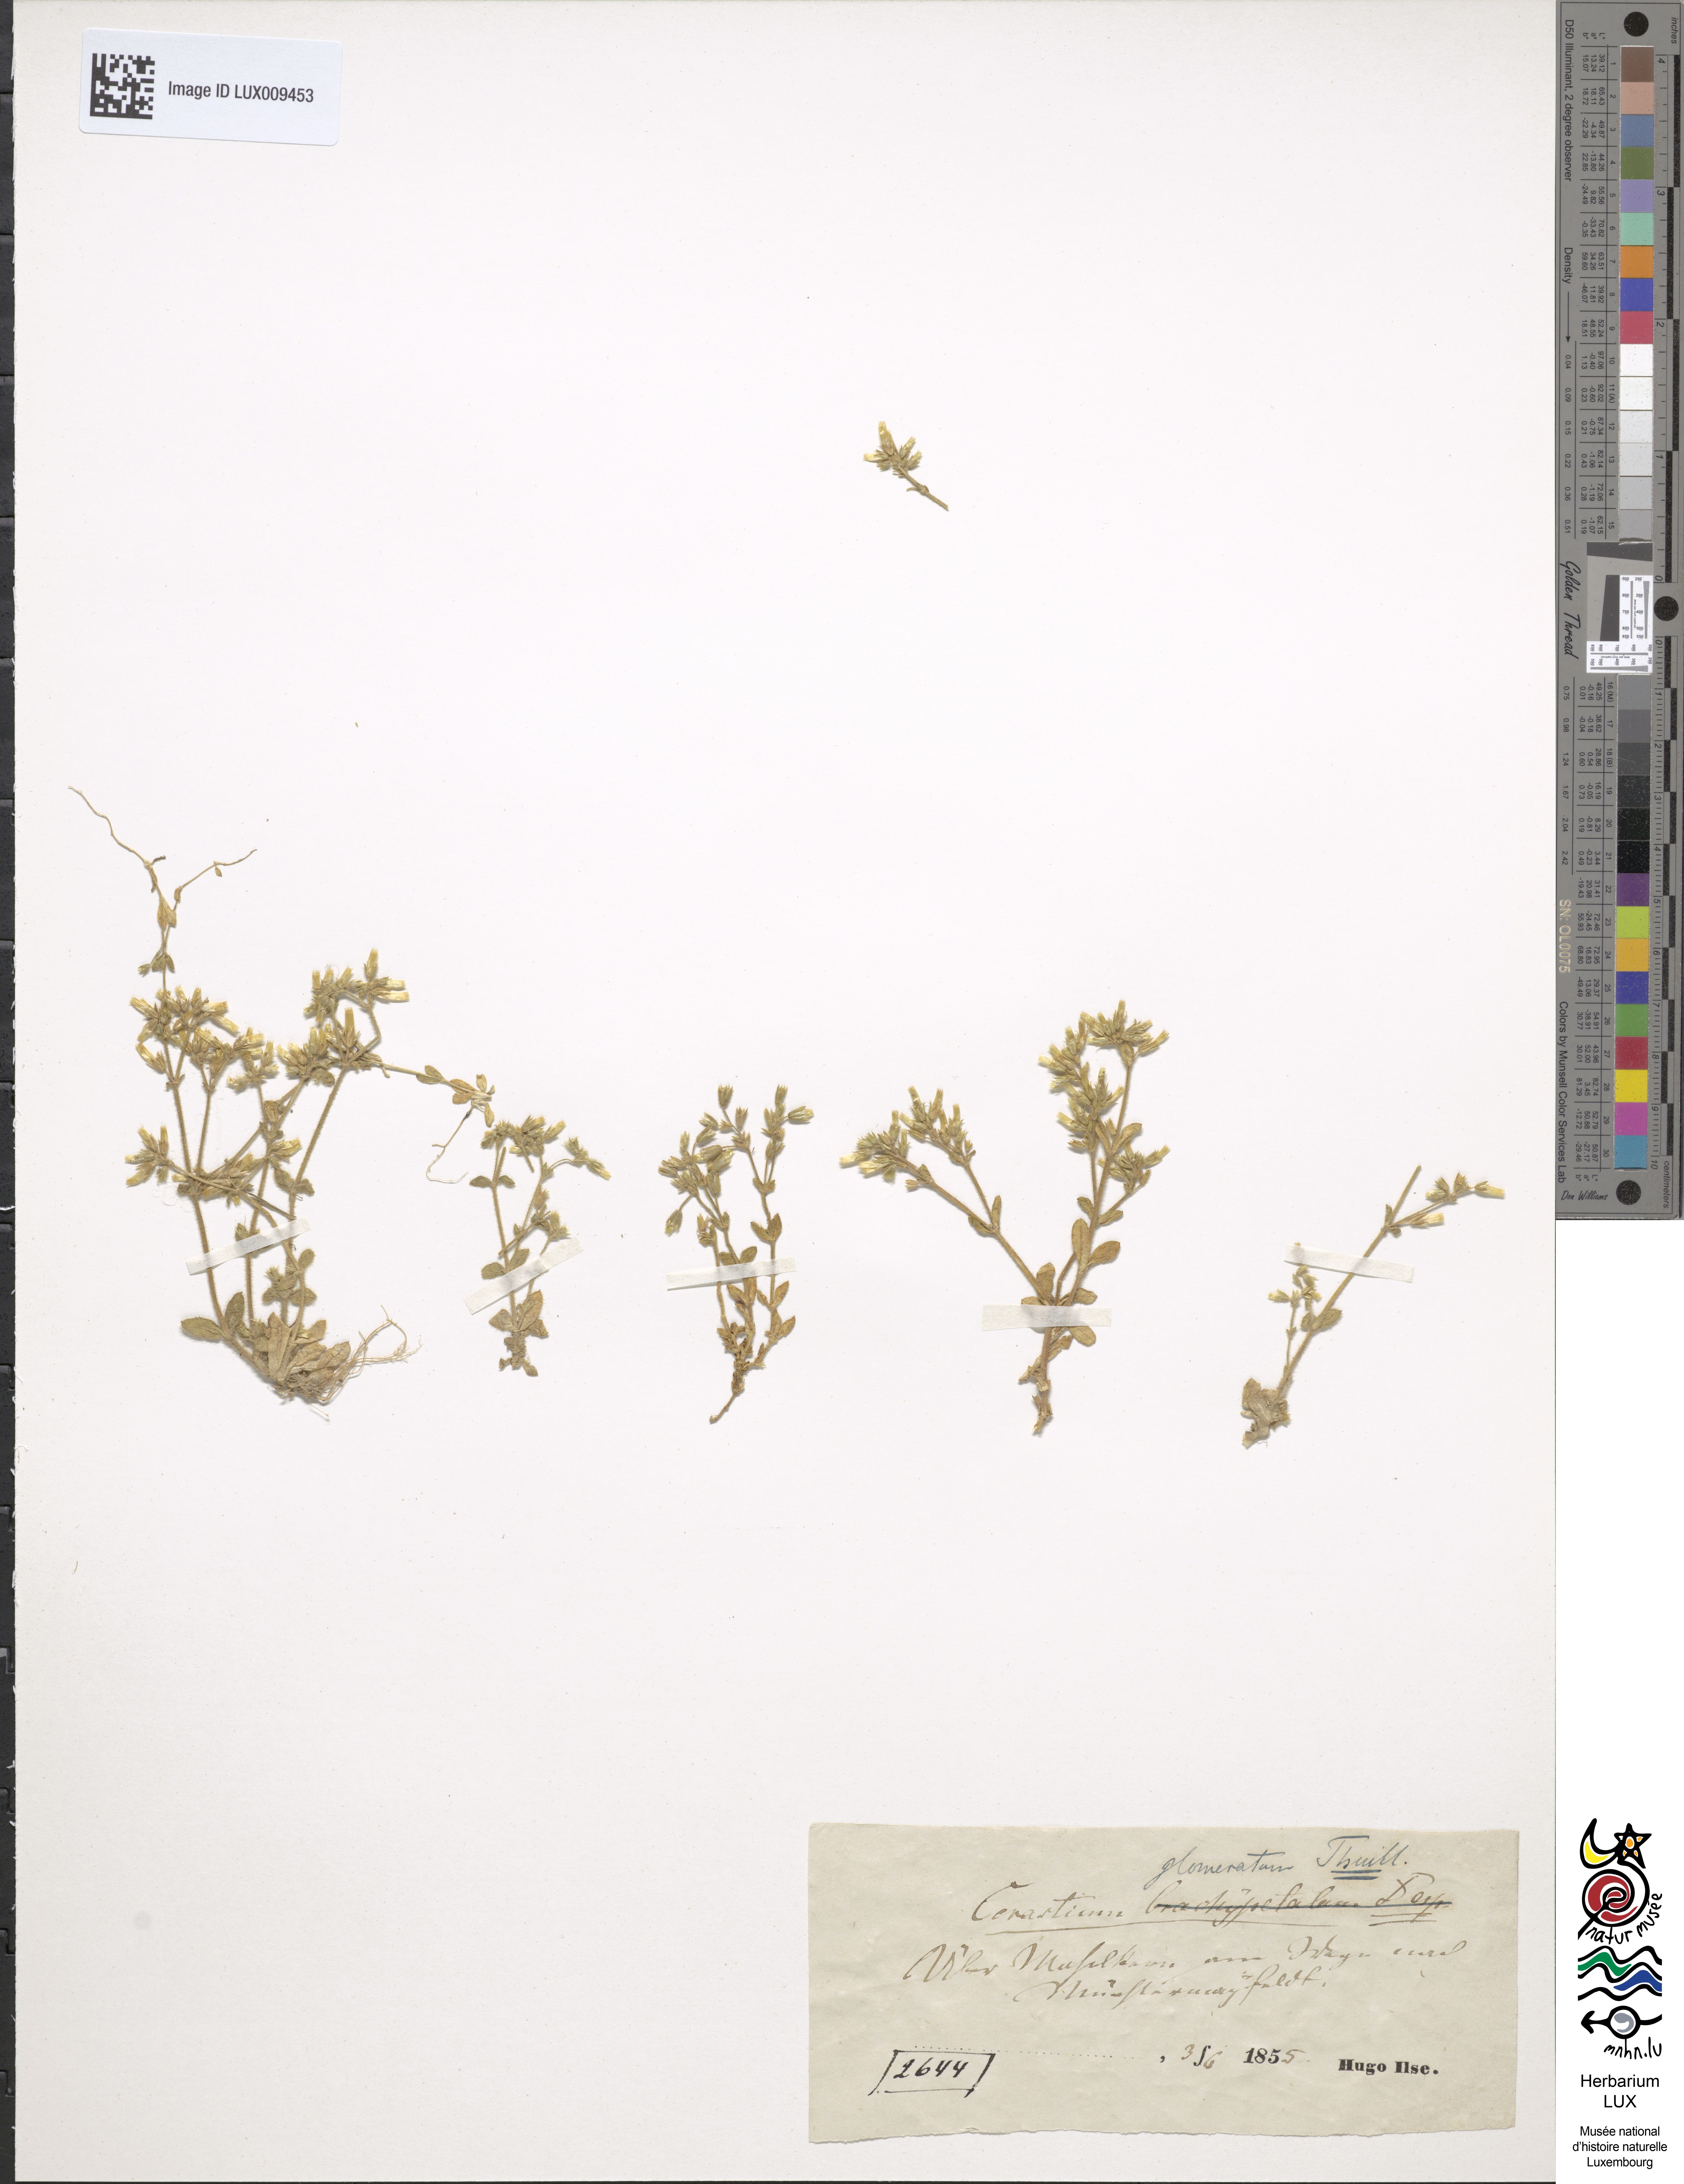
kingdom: Plantae
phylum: Tracheophyta
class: Magnoliopsida
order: Caryophyllales
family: Caryophyllaceae
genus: Cerastium
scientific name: Cerastium glomeratum
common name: Sticky chickweed
